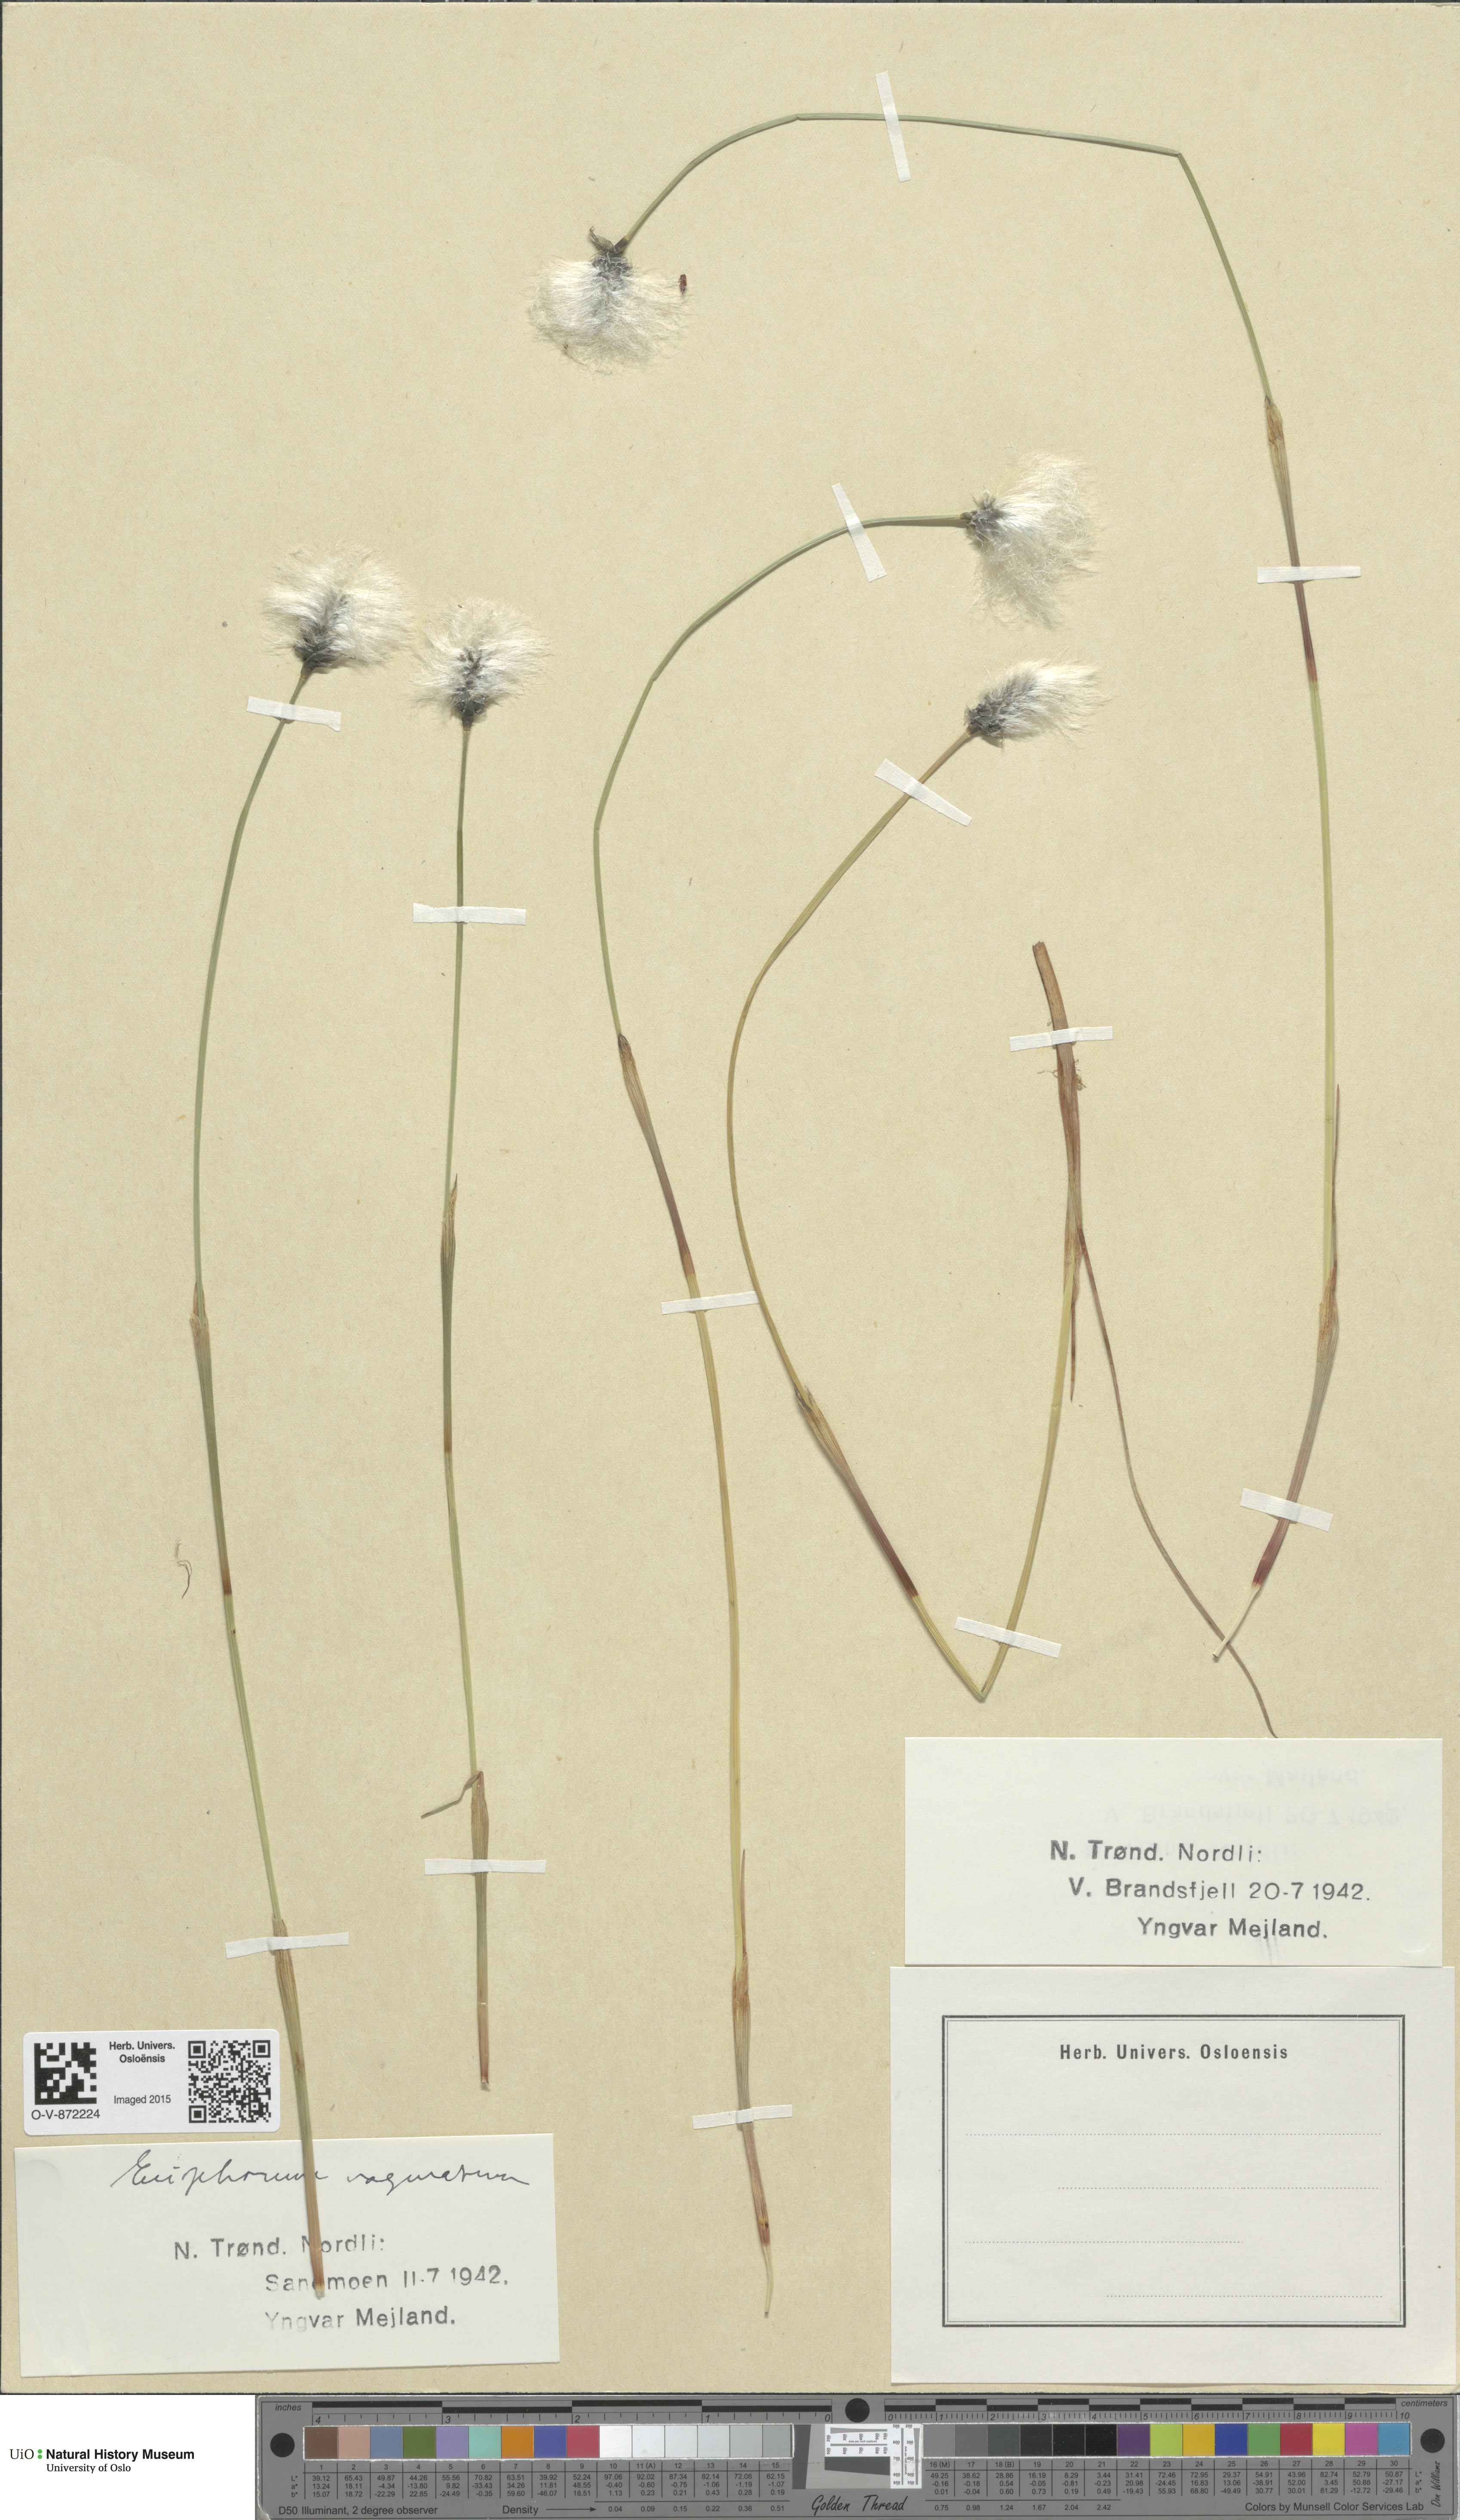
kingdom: Plantae
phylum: Tracheophyta
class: Liliopsida
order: Poales
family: Cyperaceae
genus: Eriophorum
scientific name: Eriophorum vaginatum
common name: Hare's-tail cottongrass
